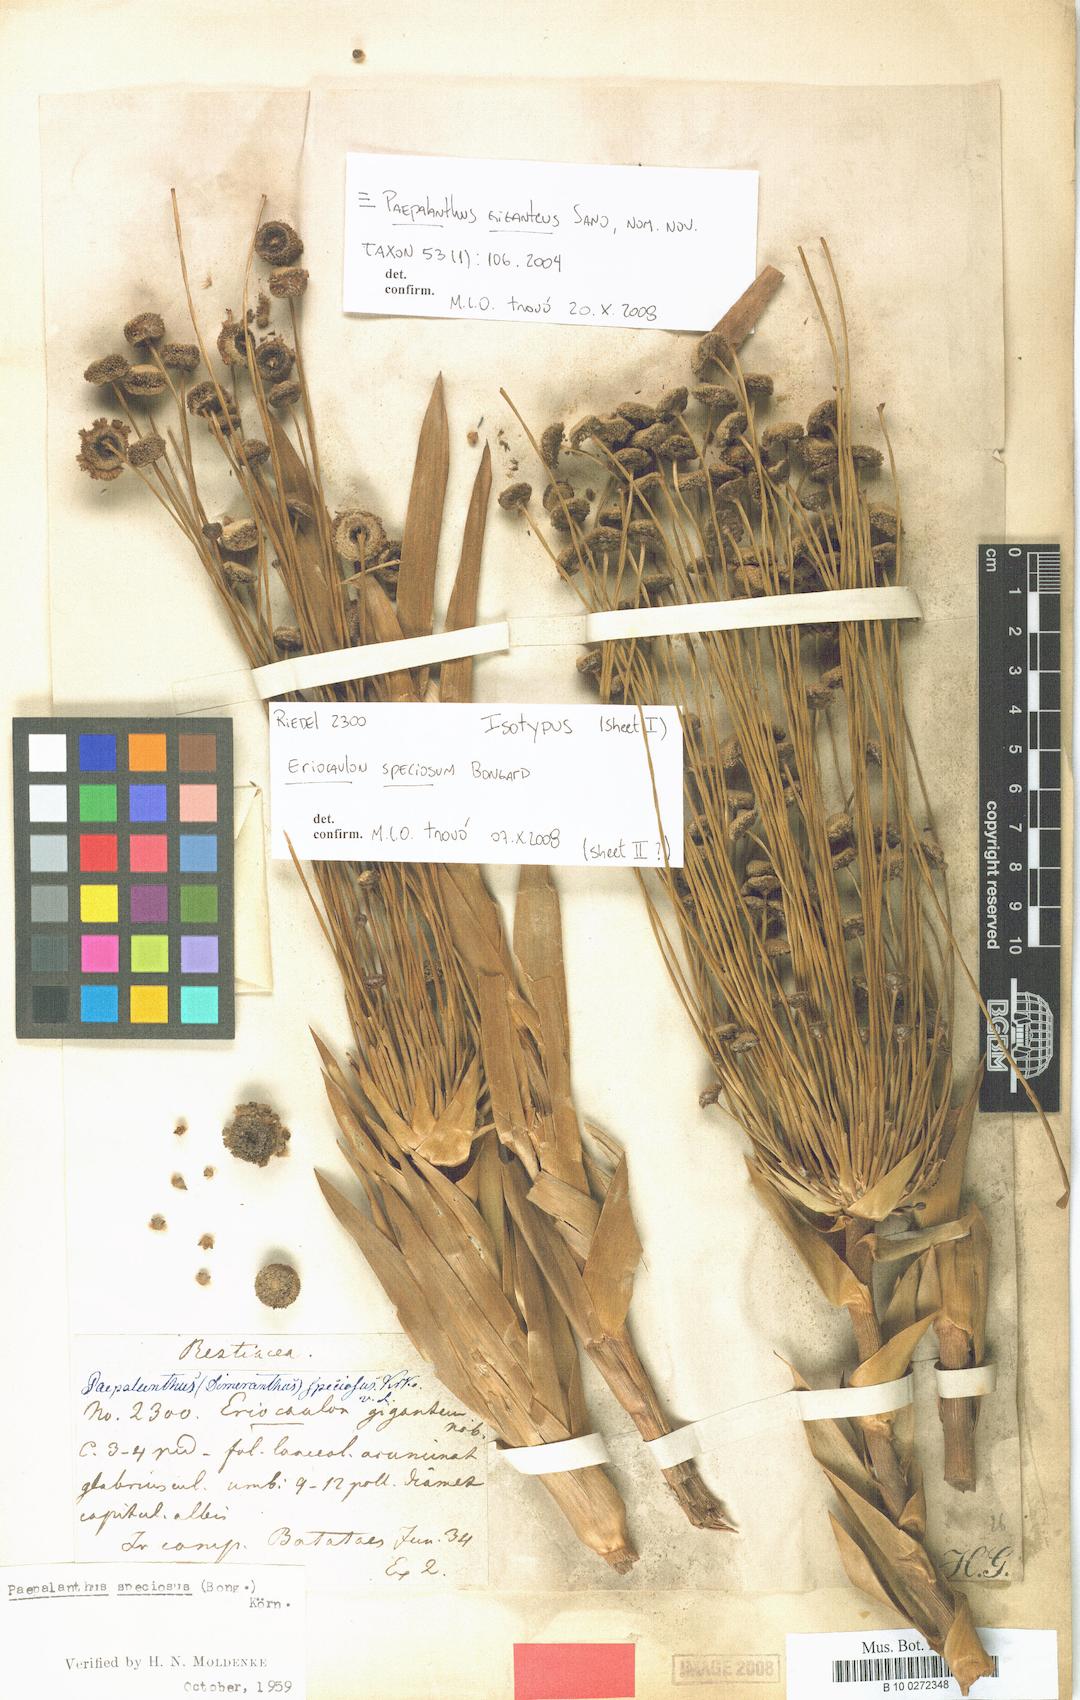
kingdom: Plantae
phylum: Tracheophyta
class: Liliopsida
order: Poales
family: Eriocaulaceae
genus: Paepalanthus
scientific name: Paepalanthus chiquitensis
